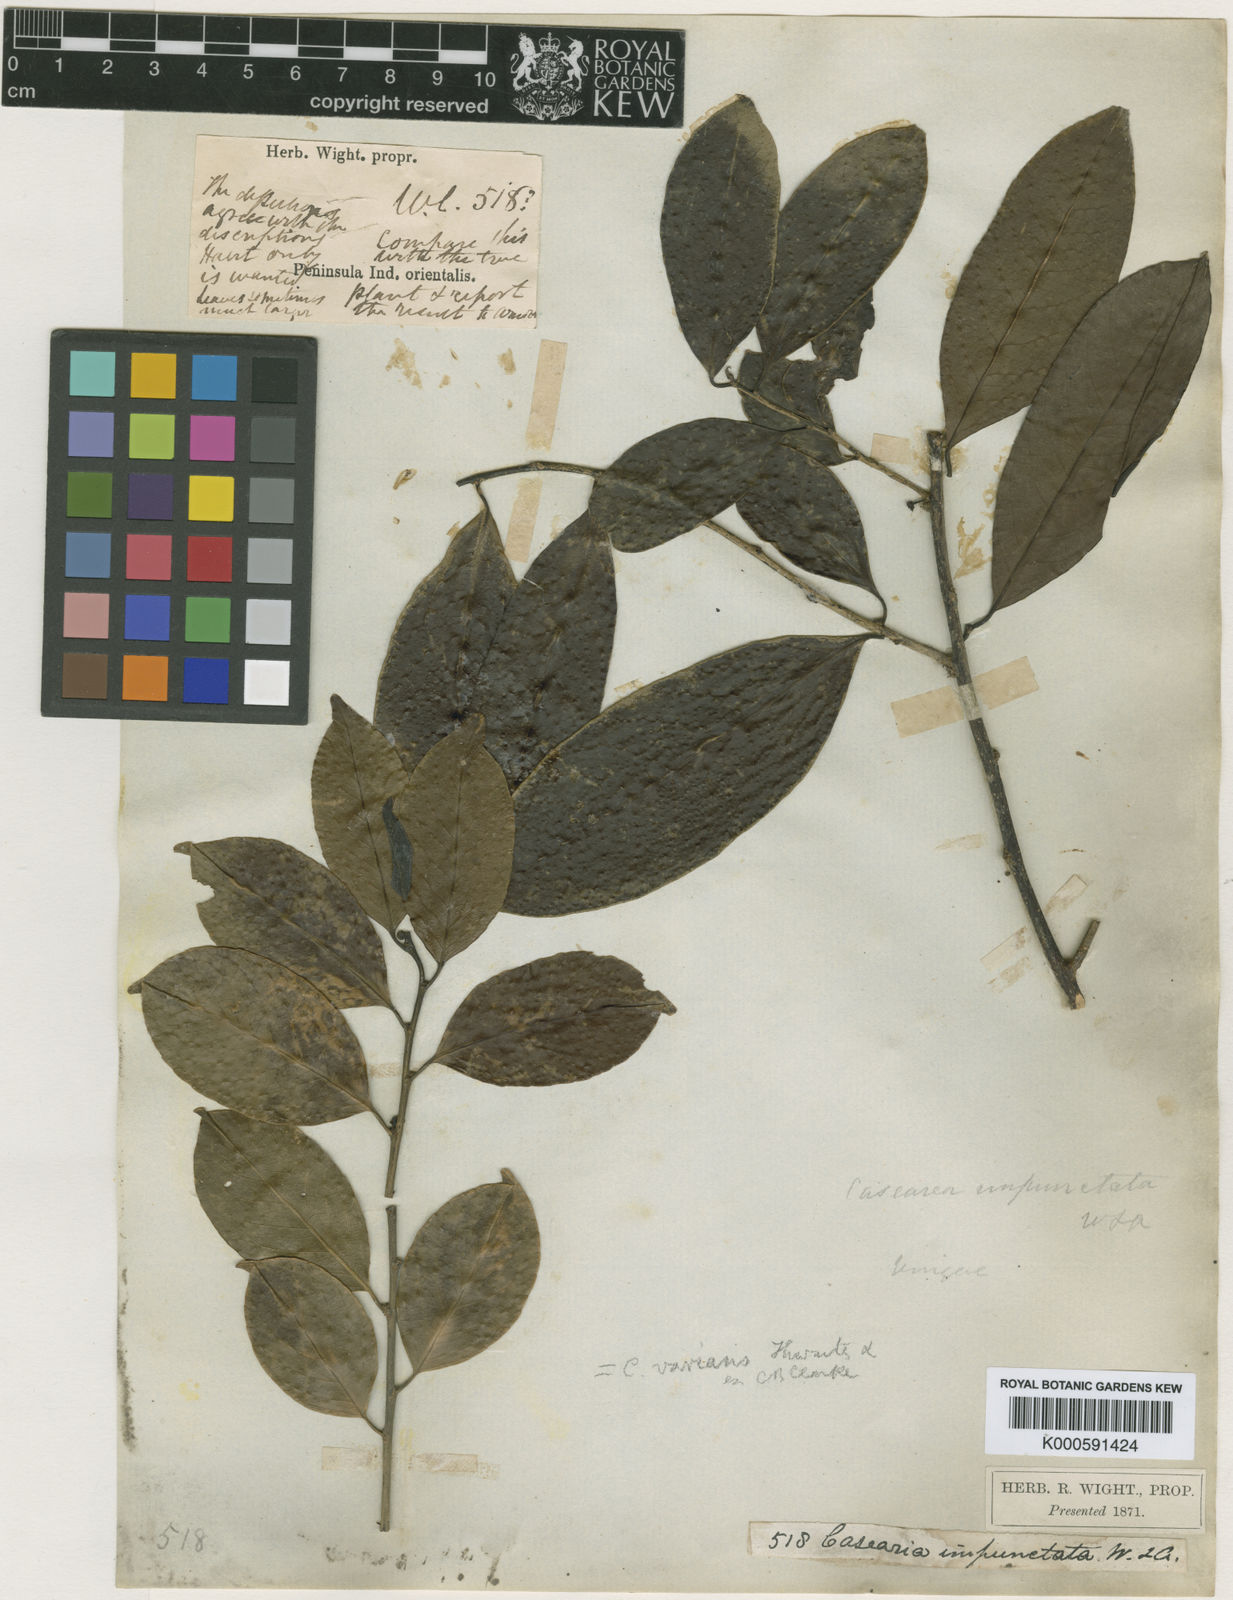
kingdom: Plantae
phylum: Tracheophyta
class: Magnoliopsida
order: Malpighiales
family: Salicaceae
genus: Casearia
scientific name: Casearia zeylanica
